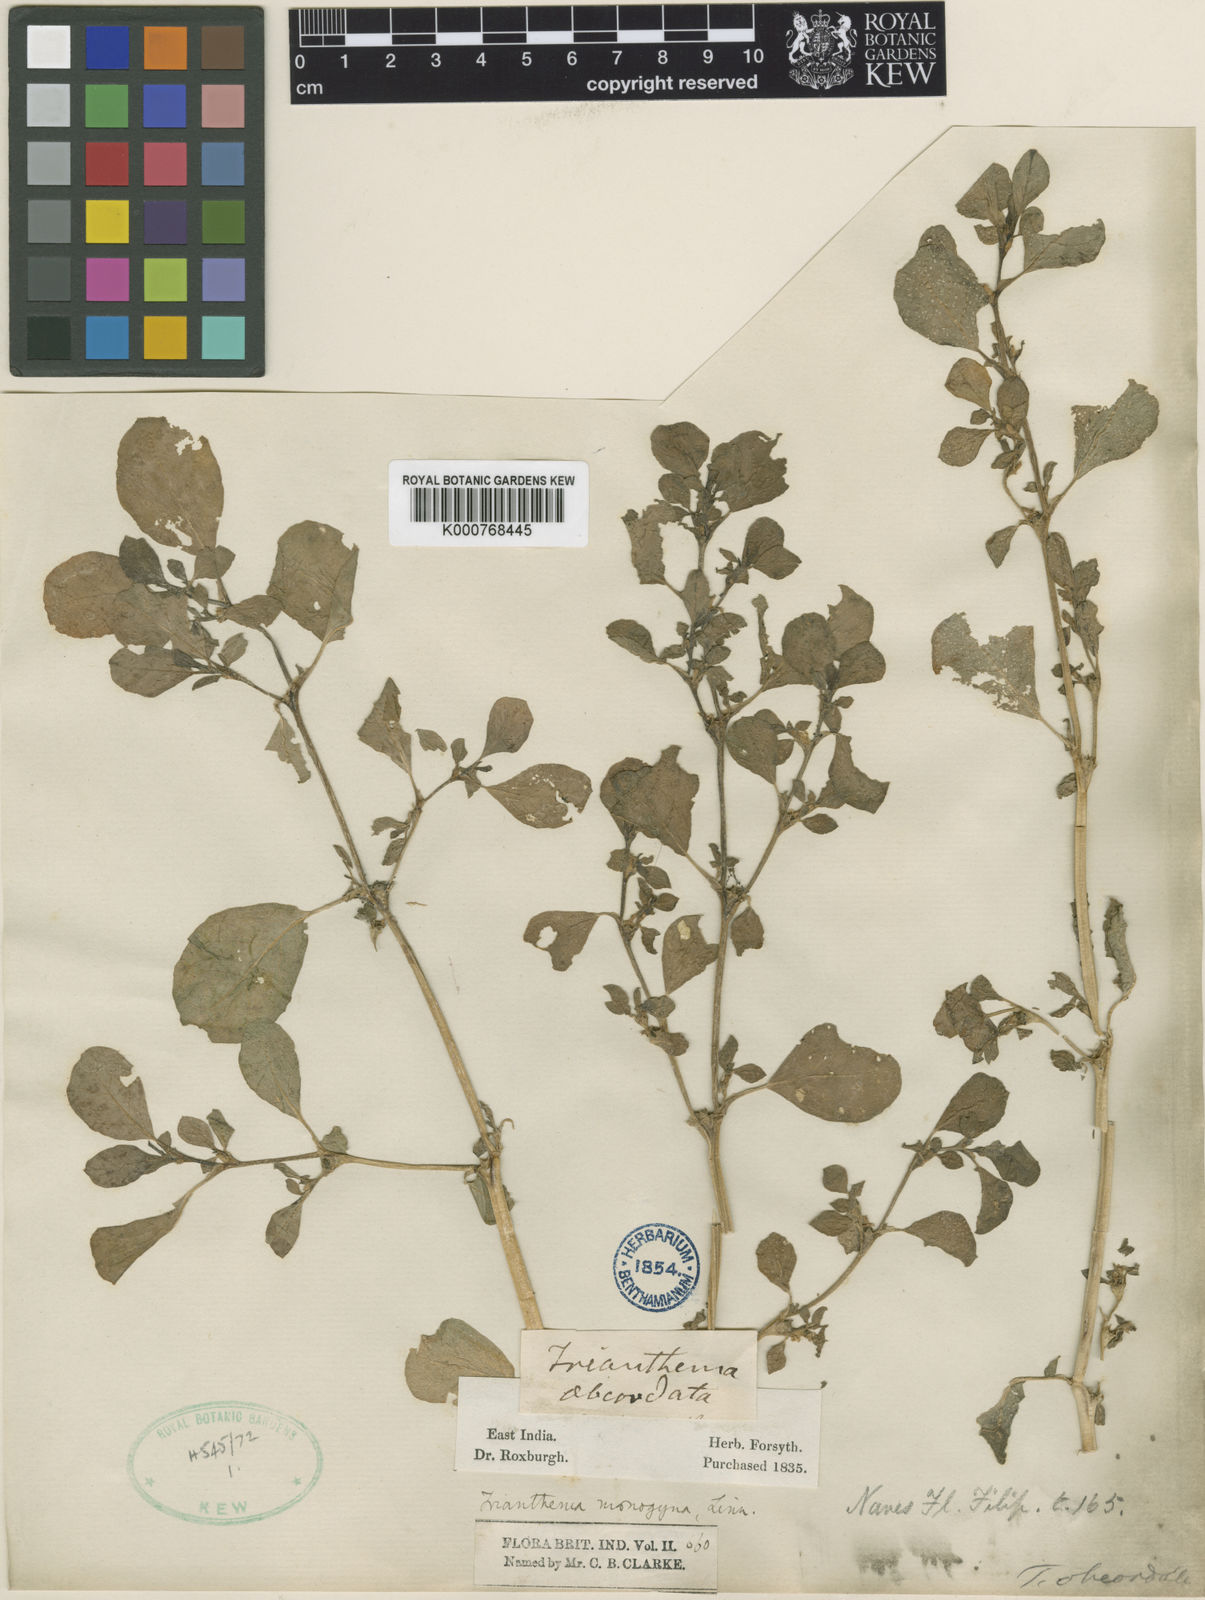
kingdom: Plantae
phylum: Tracheophyta
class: Magnoliopsida
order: Caryophyllales
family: Aizoaceae
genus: Trianthema
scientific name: Trianthema portulacastrum
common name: Desert horsepurslane
